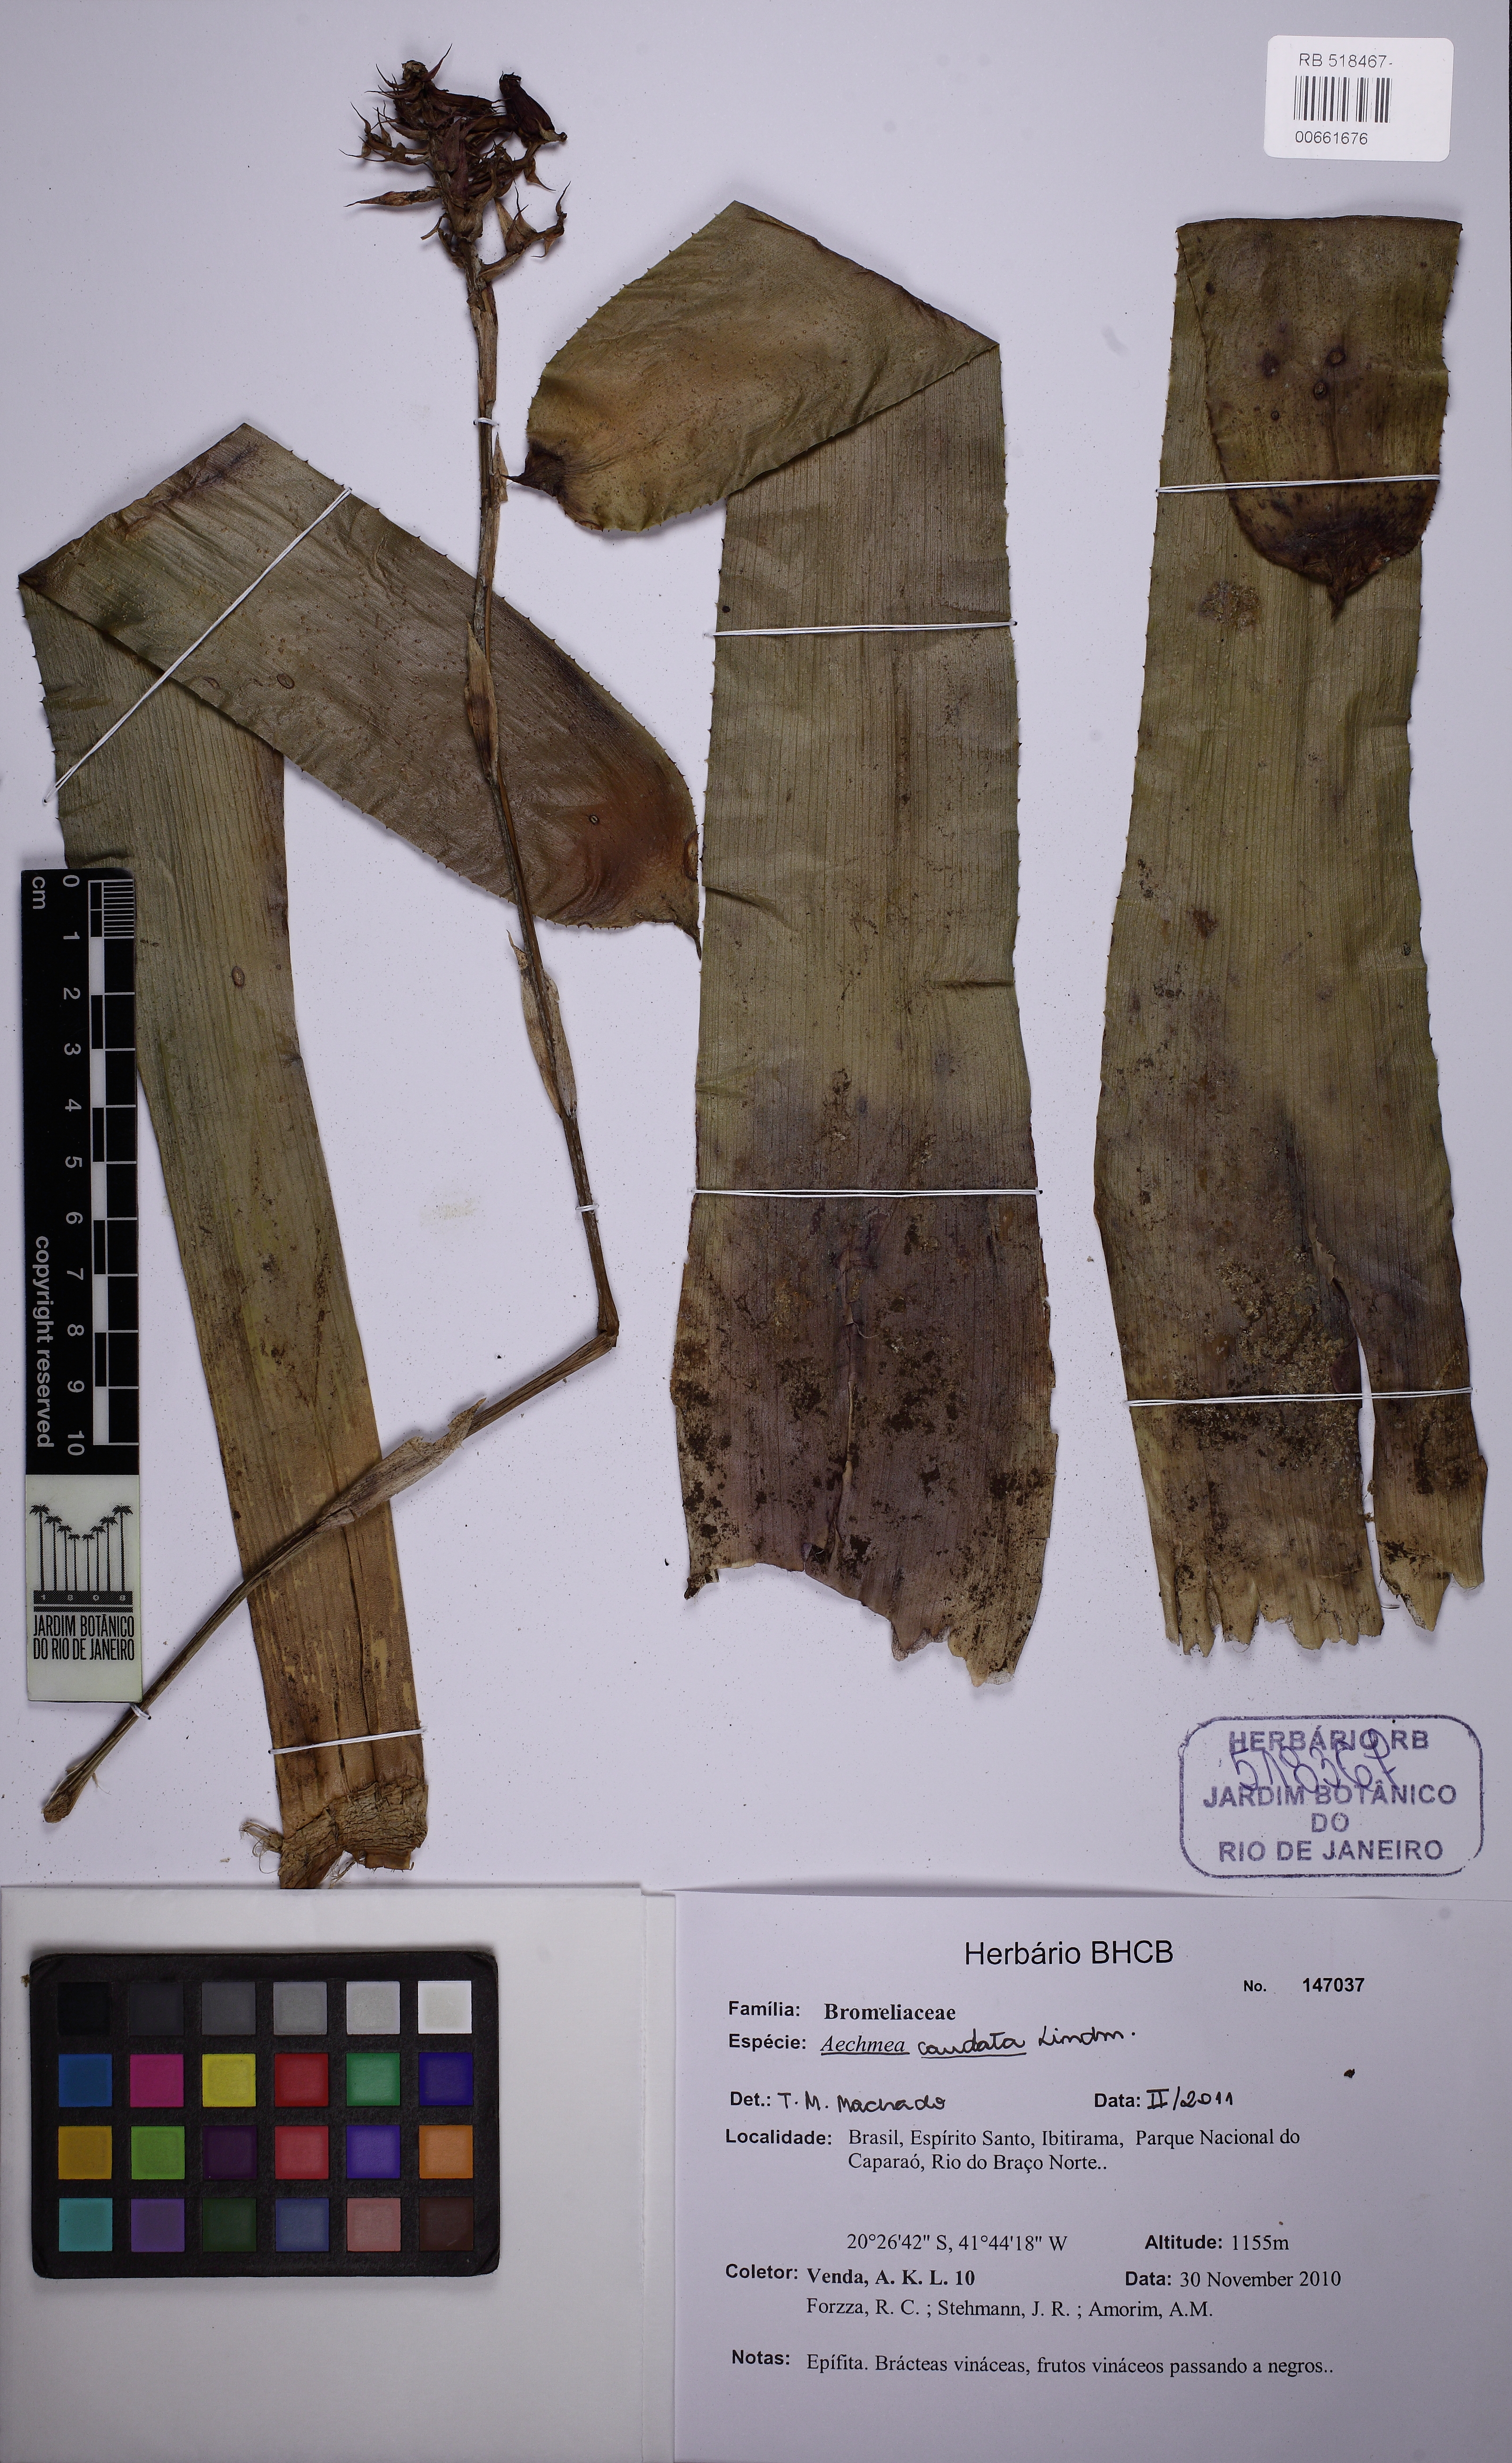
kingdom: Plantae
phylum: Tracheophyta
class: Liliopsida
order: Poales
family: Bromeliaceae
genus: Aechmea
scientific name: Aechmea
